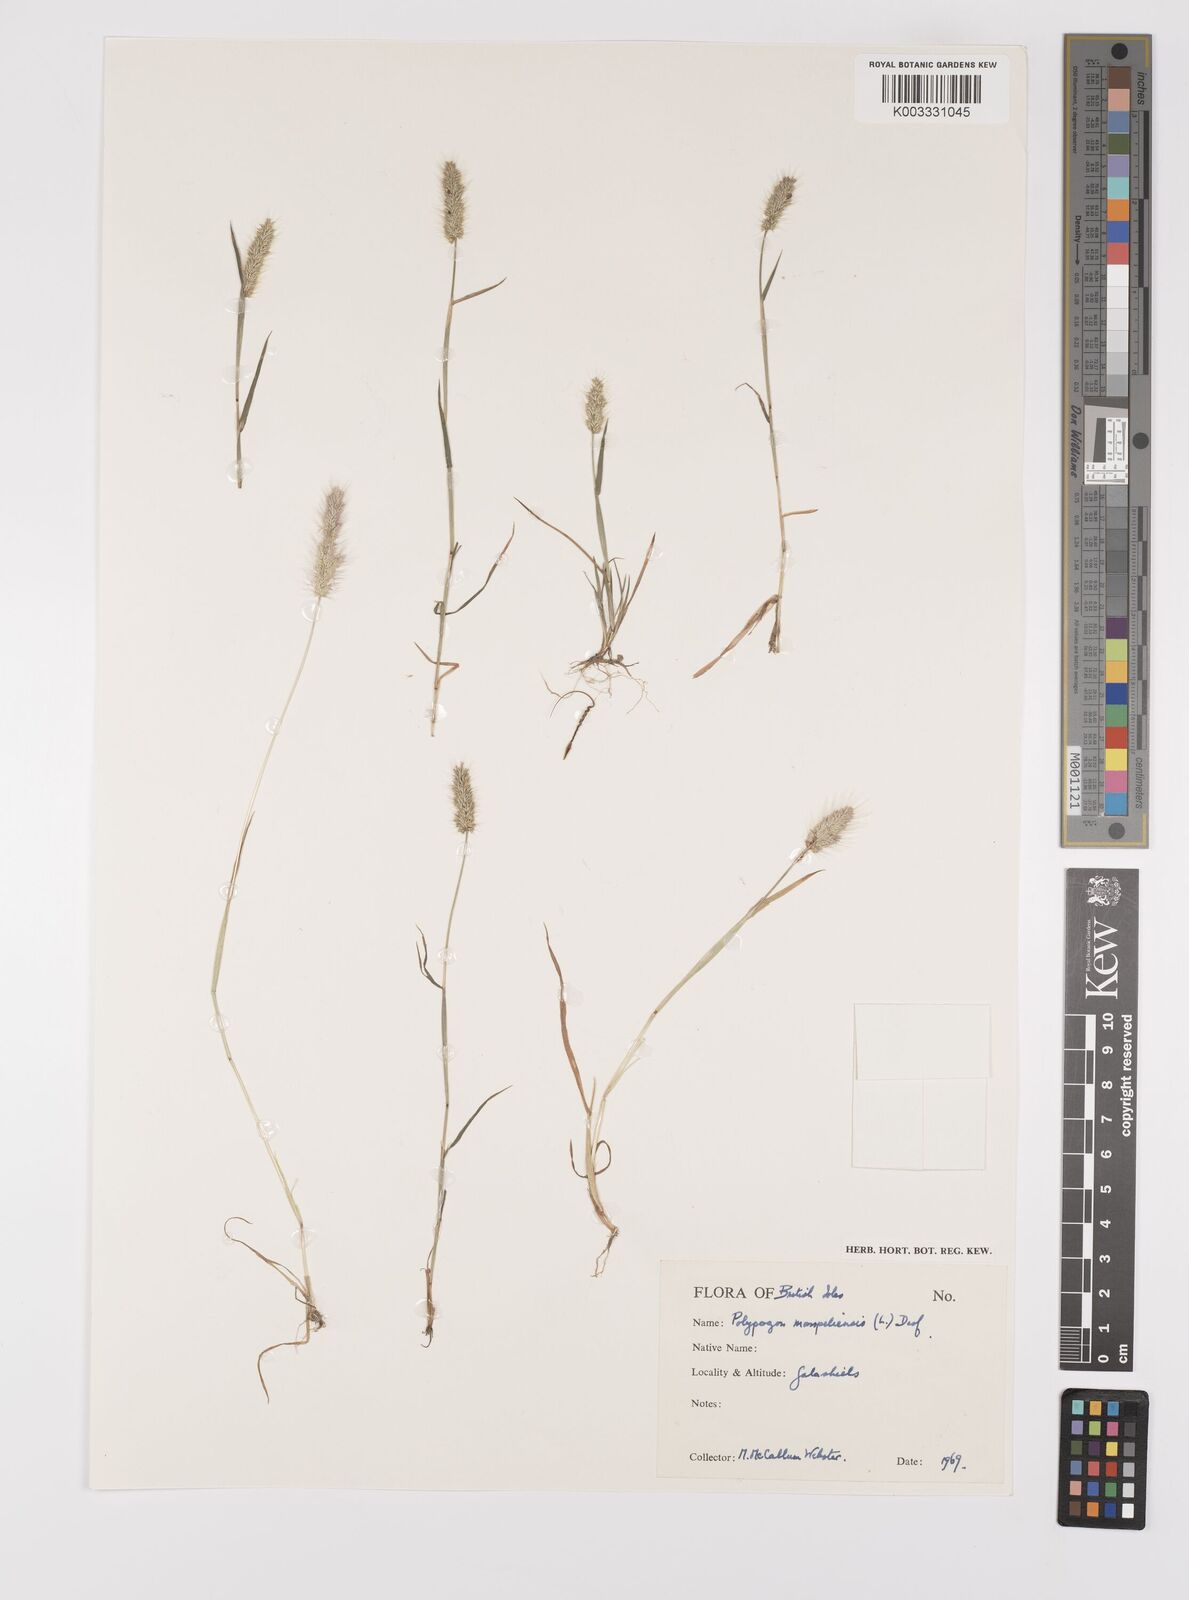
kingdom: Plantae
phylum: Tracheophyta
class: Liliopsida
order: Poales
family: Poaceae
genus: Polypogon
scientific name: Polypogon monspeliensis
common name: Annual rabbitsfoot grass
